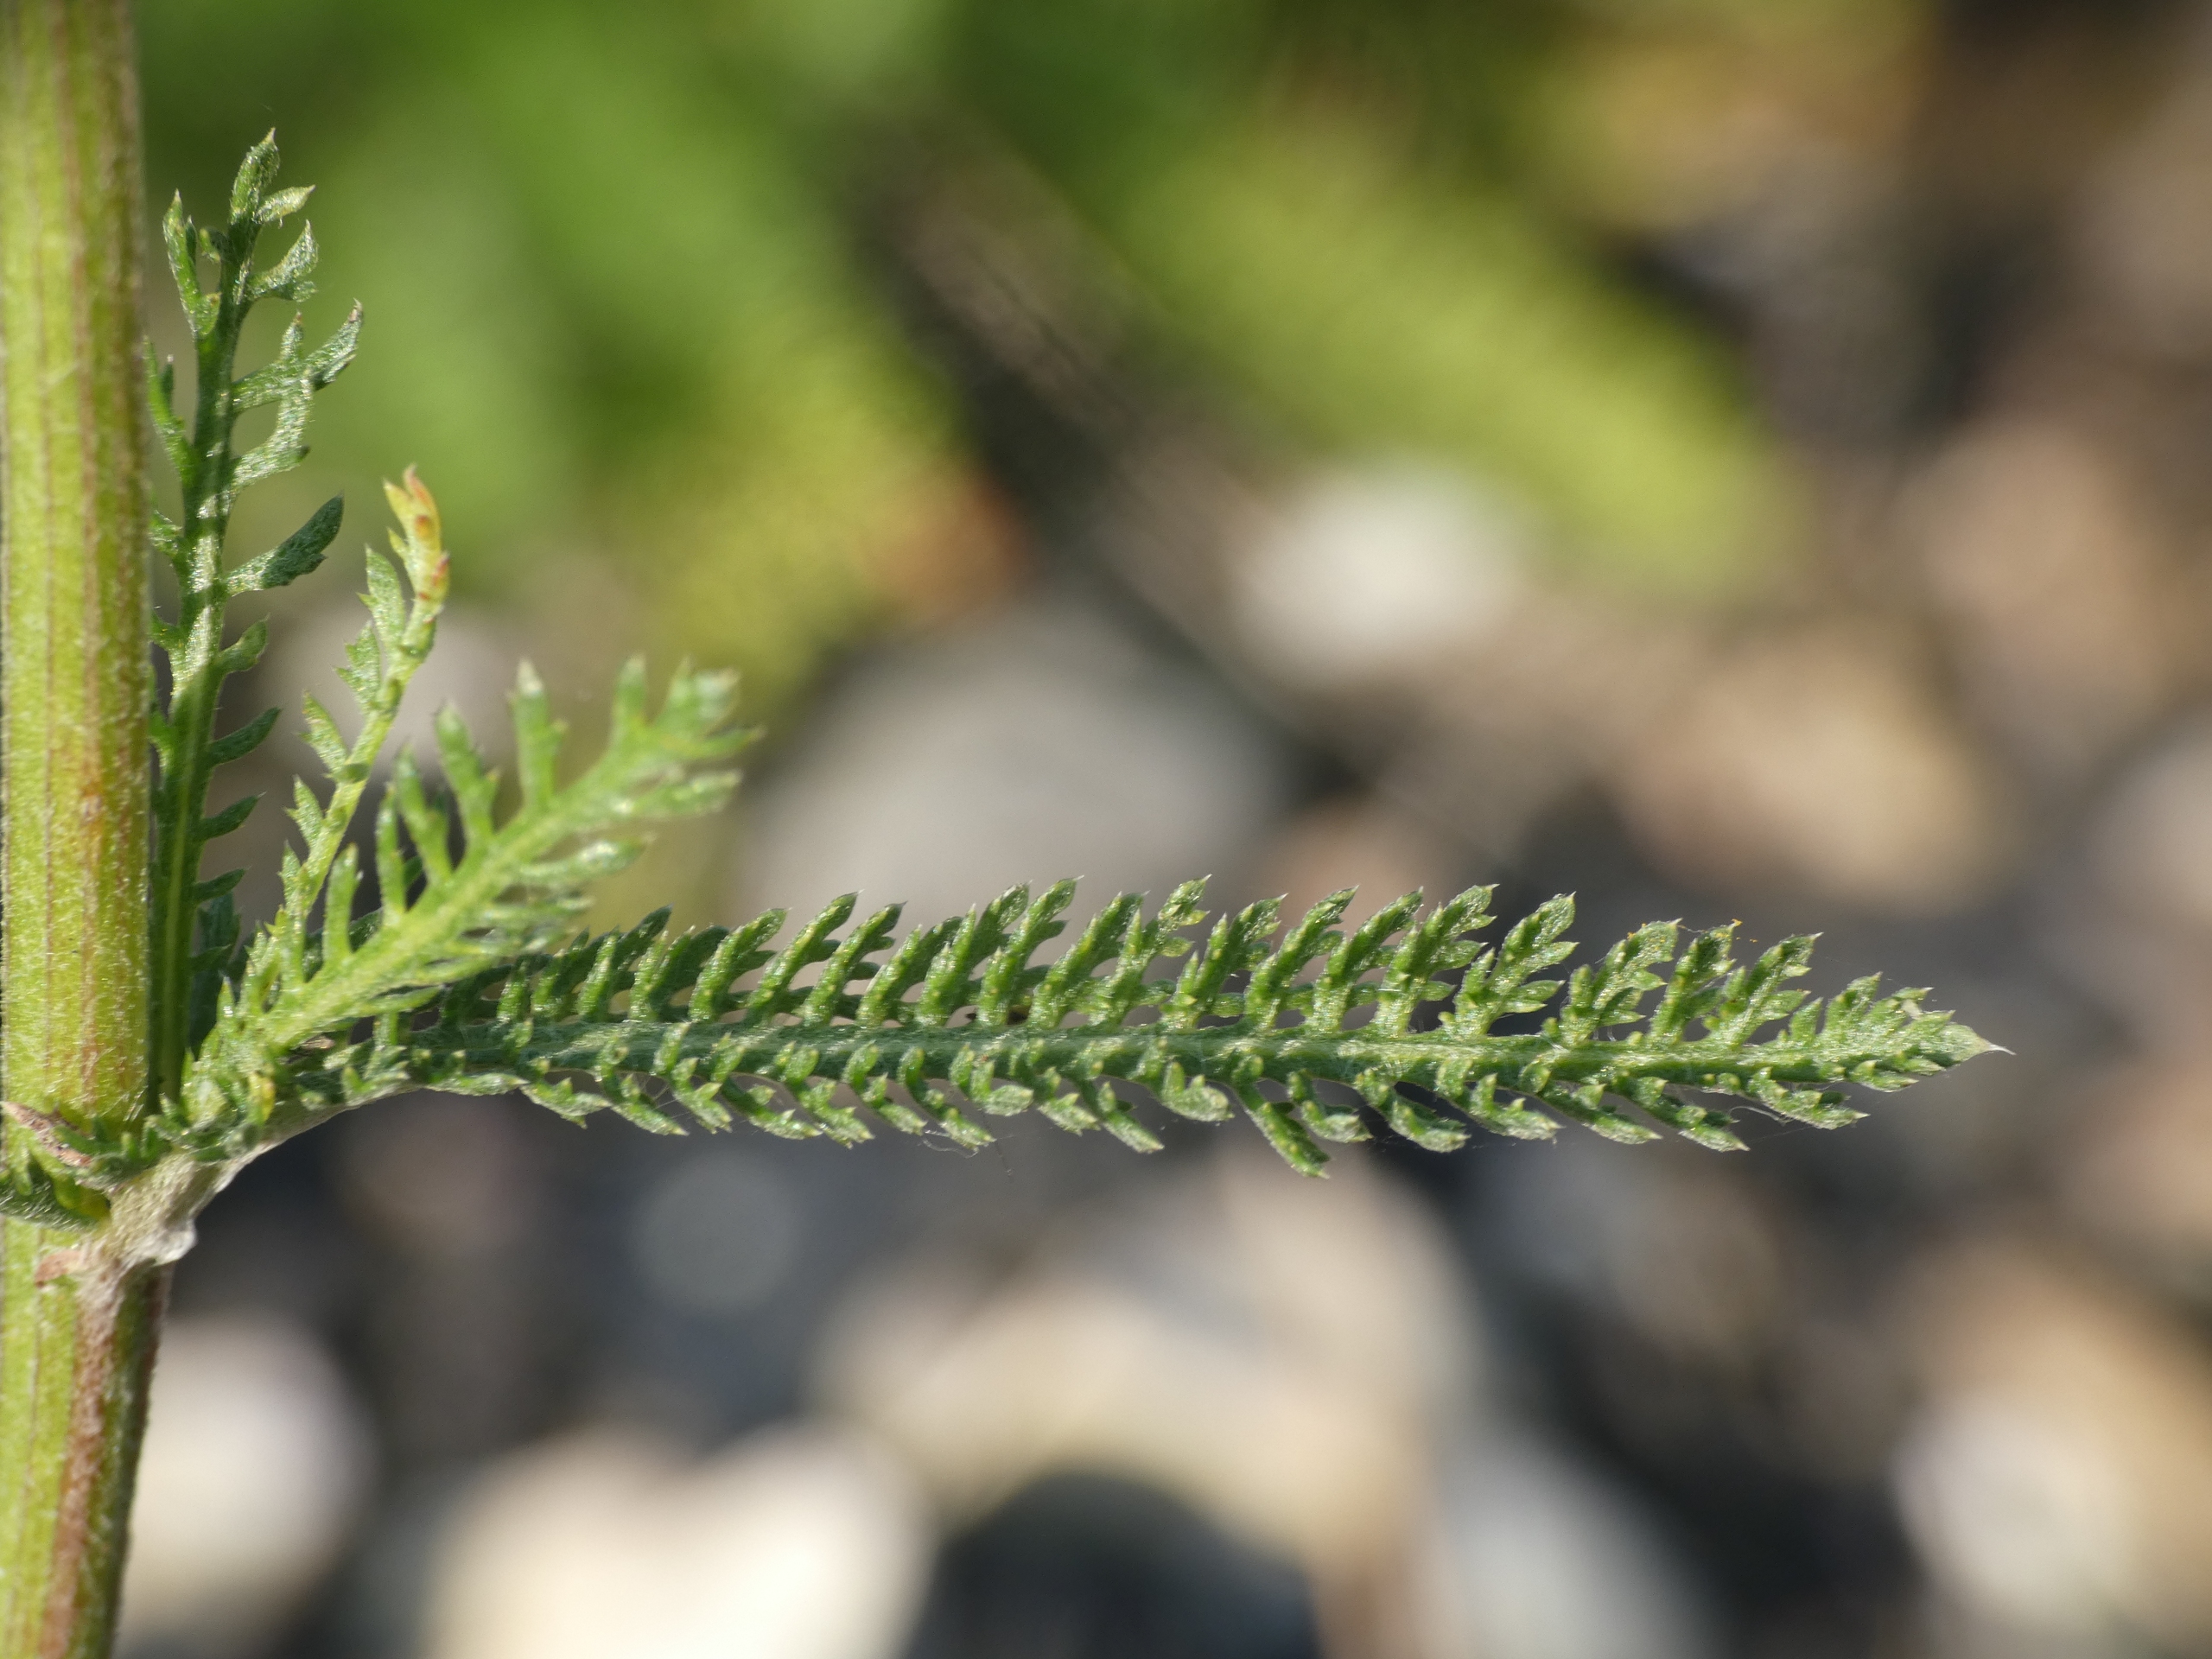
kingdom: Plantae
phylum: Tracheophyta
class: Magnoliopsida
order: Asterales
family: Asteraceae
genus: Achillea
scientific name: Achillea millefolium
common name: Almindelig røllike
